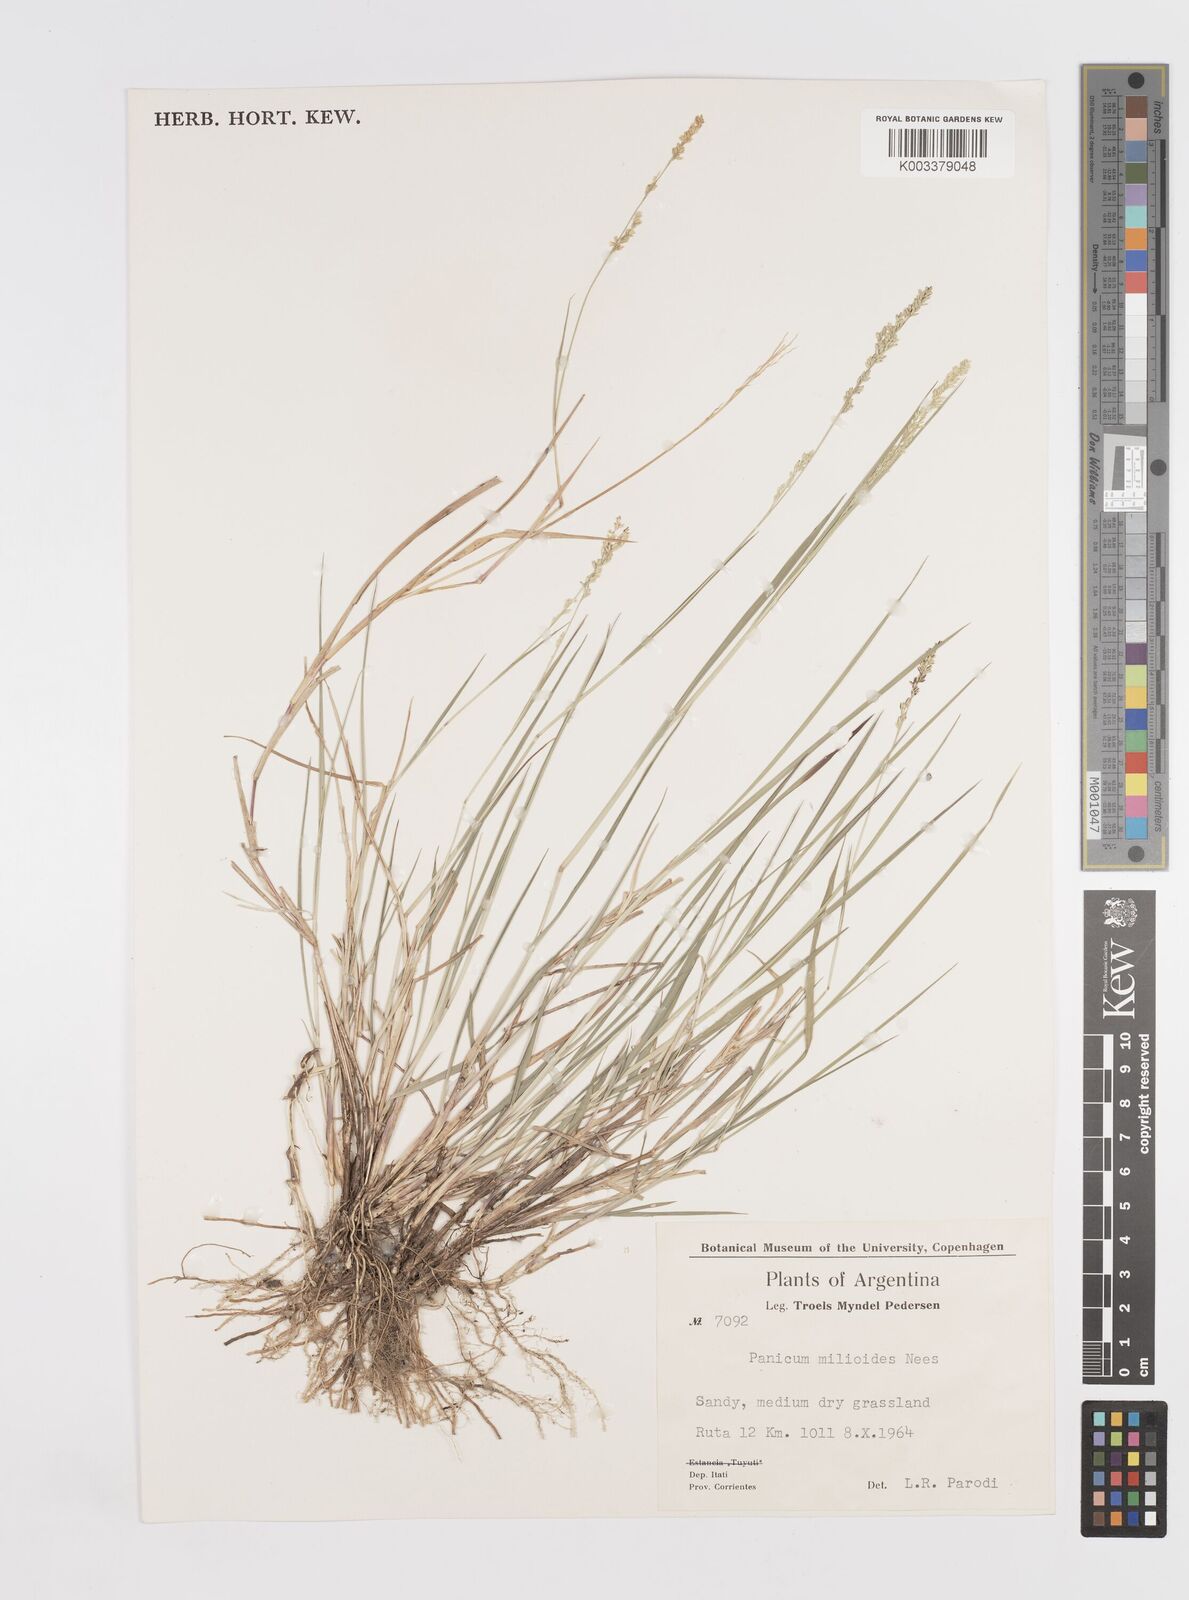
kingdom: Plantae
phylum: Tracheophyta
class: Liliopsida
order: Poales
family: Poaceae
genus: Steinchisma
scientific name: Steinchisma hians
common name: Gaping panic grass
